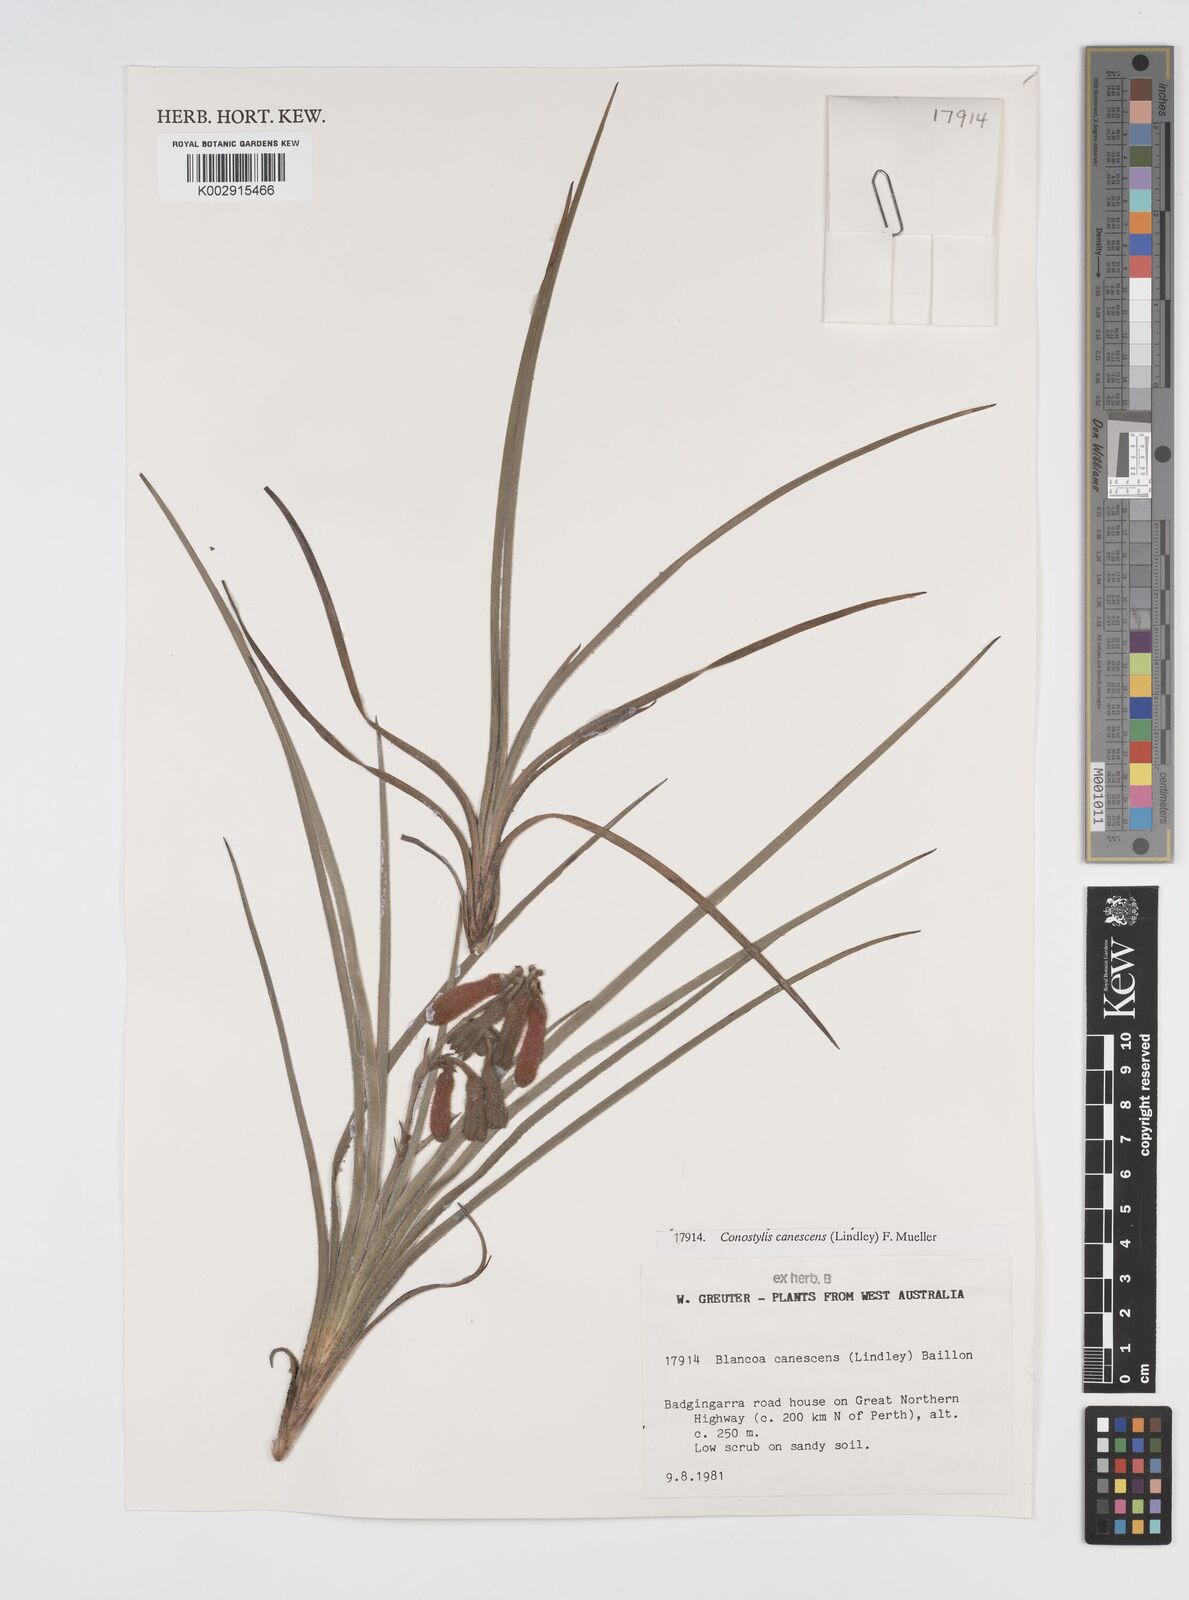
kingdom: Plantae
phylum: Tracheophyta
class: Liliopsida
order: Commelinales
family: Haemodoraceae
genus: Blancoa
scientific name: Blancoa canescens
